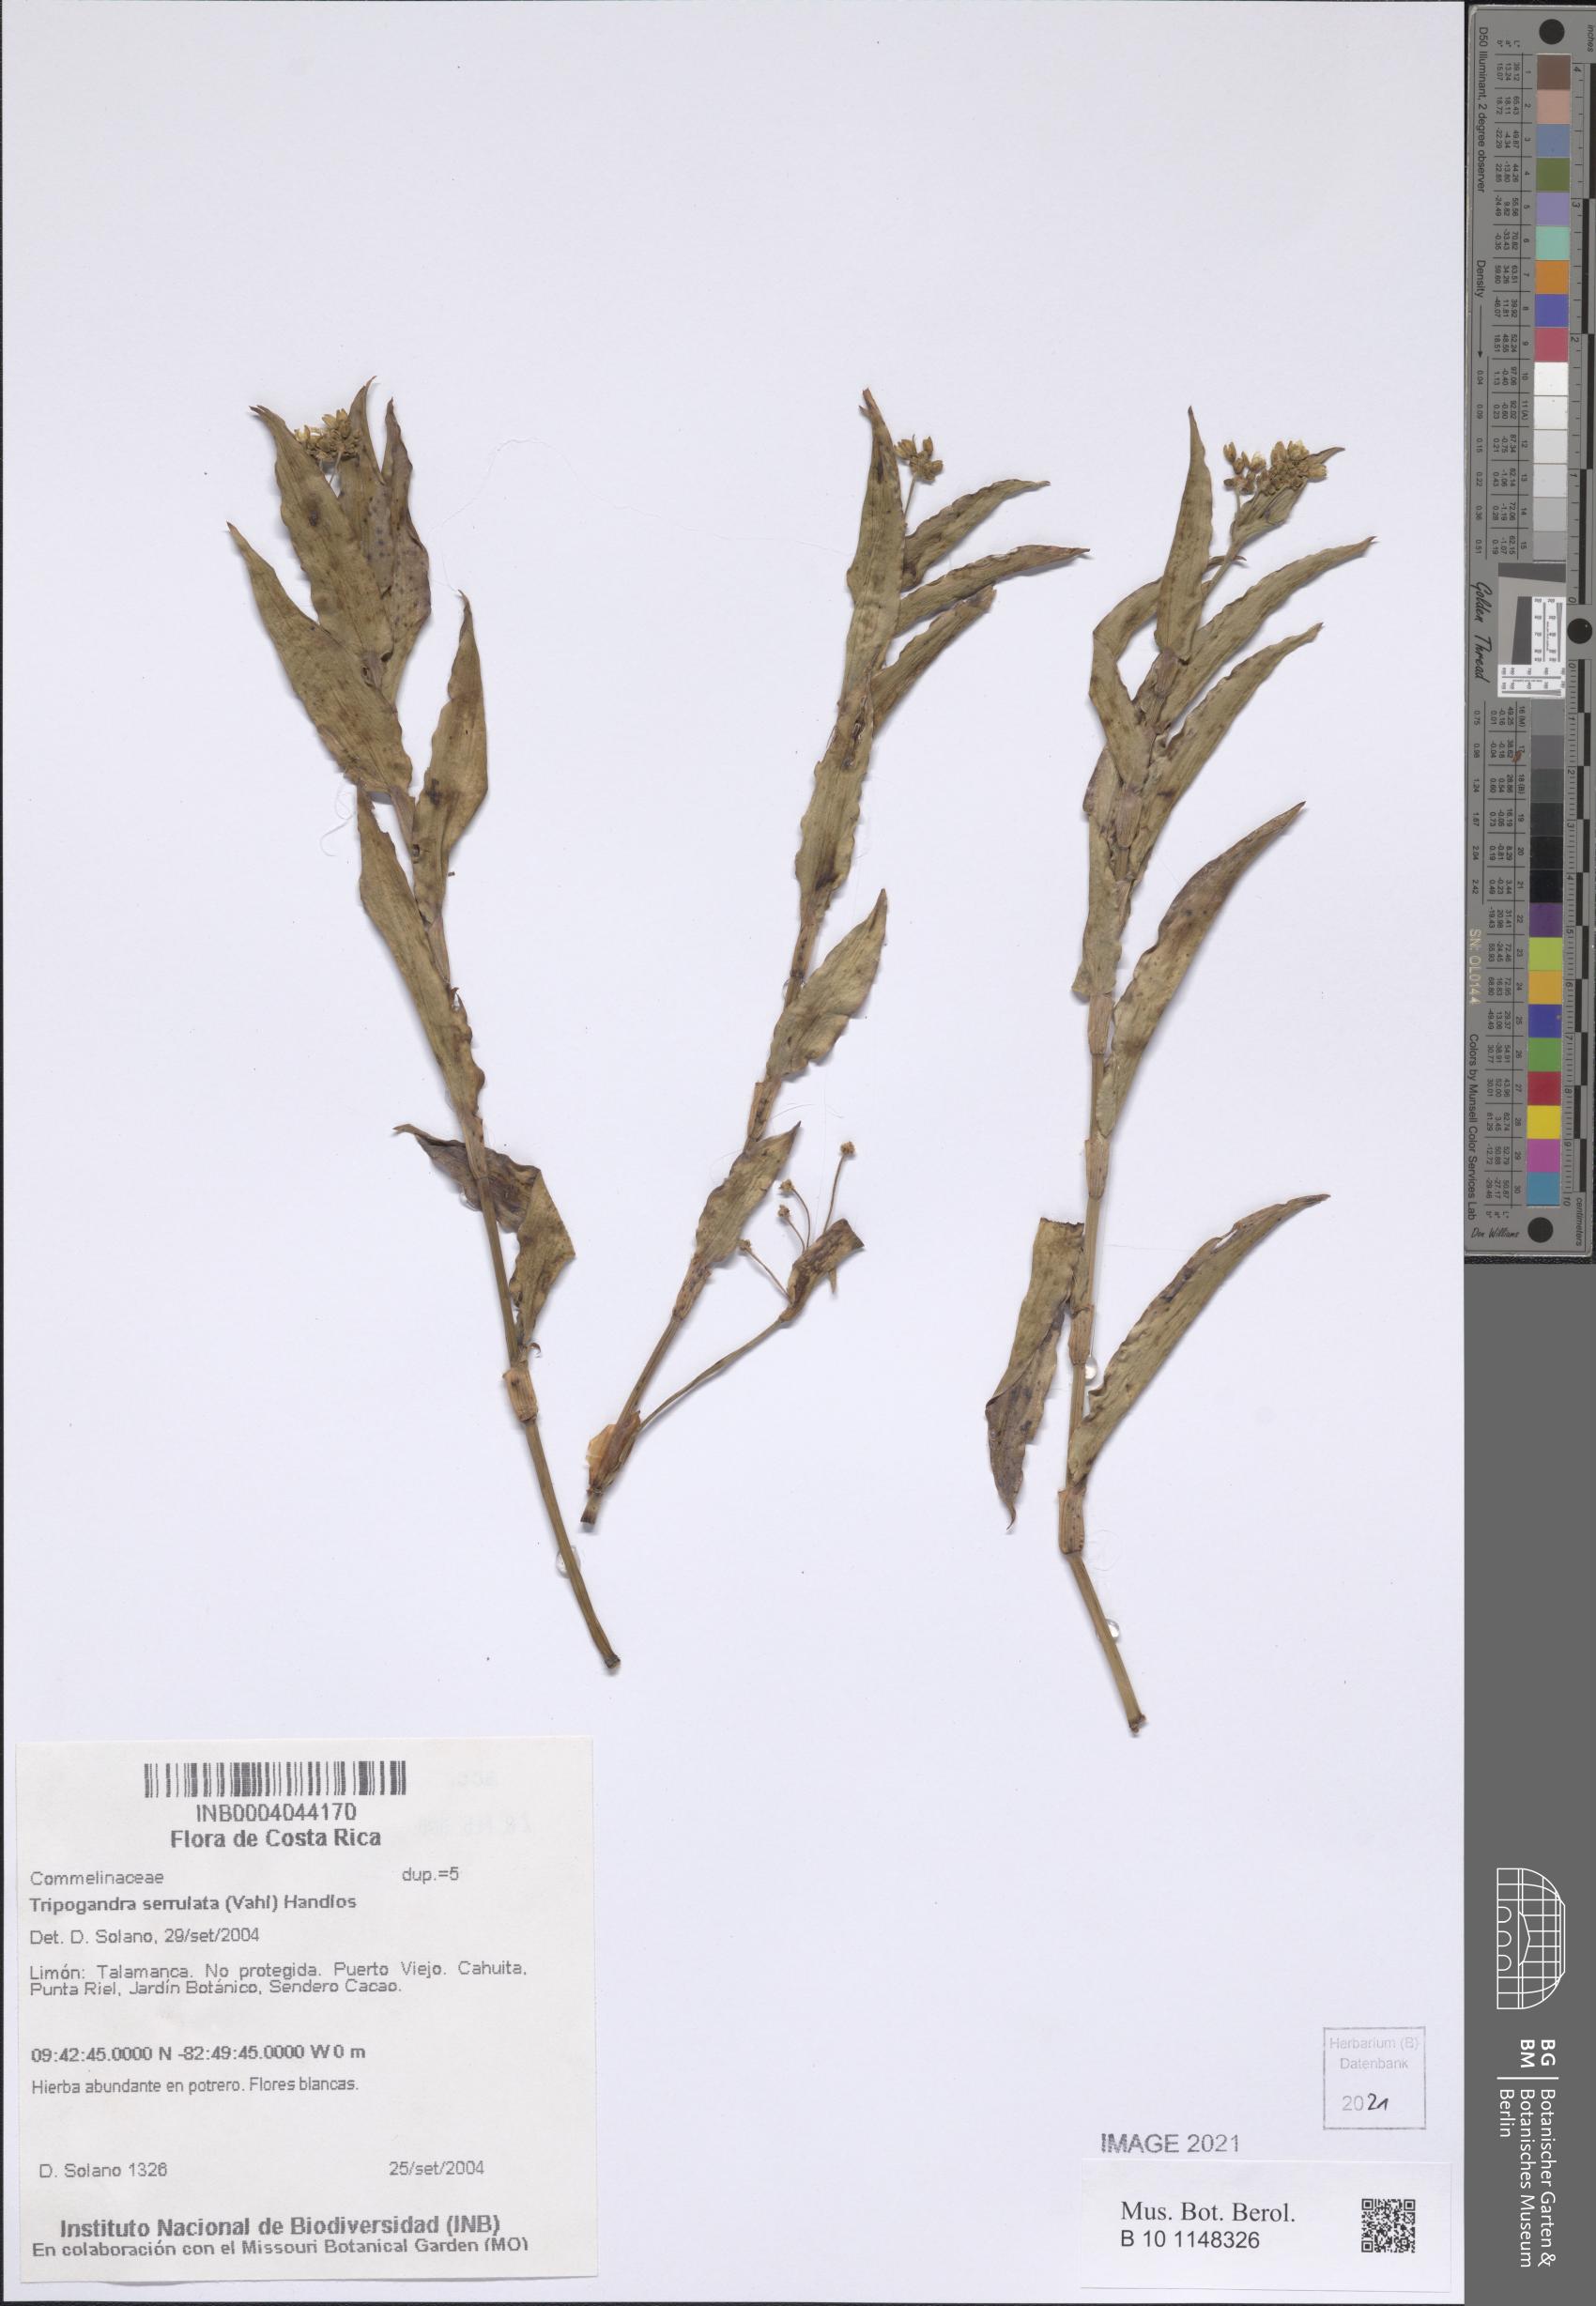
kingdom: Plantae
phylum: Tracheophyta
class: Liliopsida
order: Commelinales
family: Commelinaceae
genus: Callisia
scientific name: Callisia serrulata
